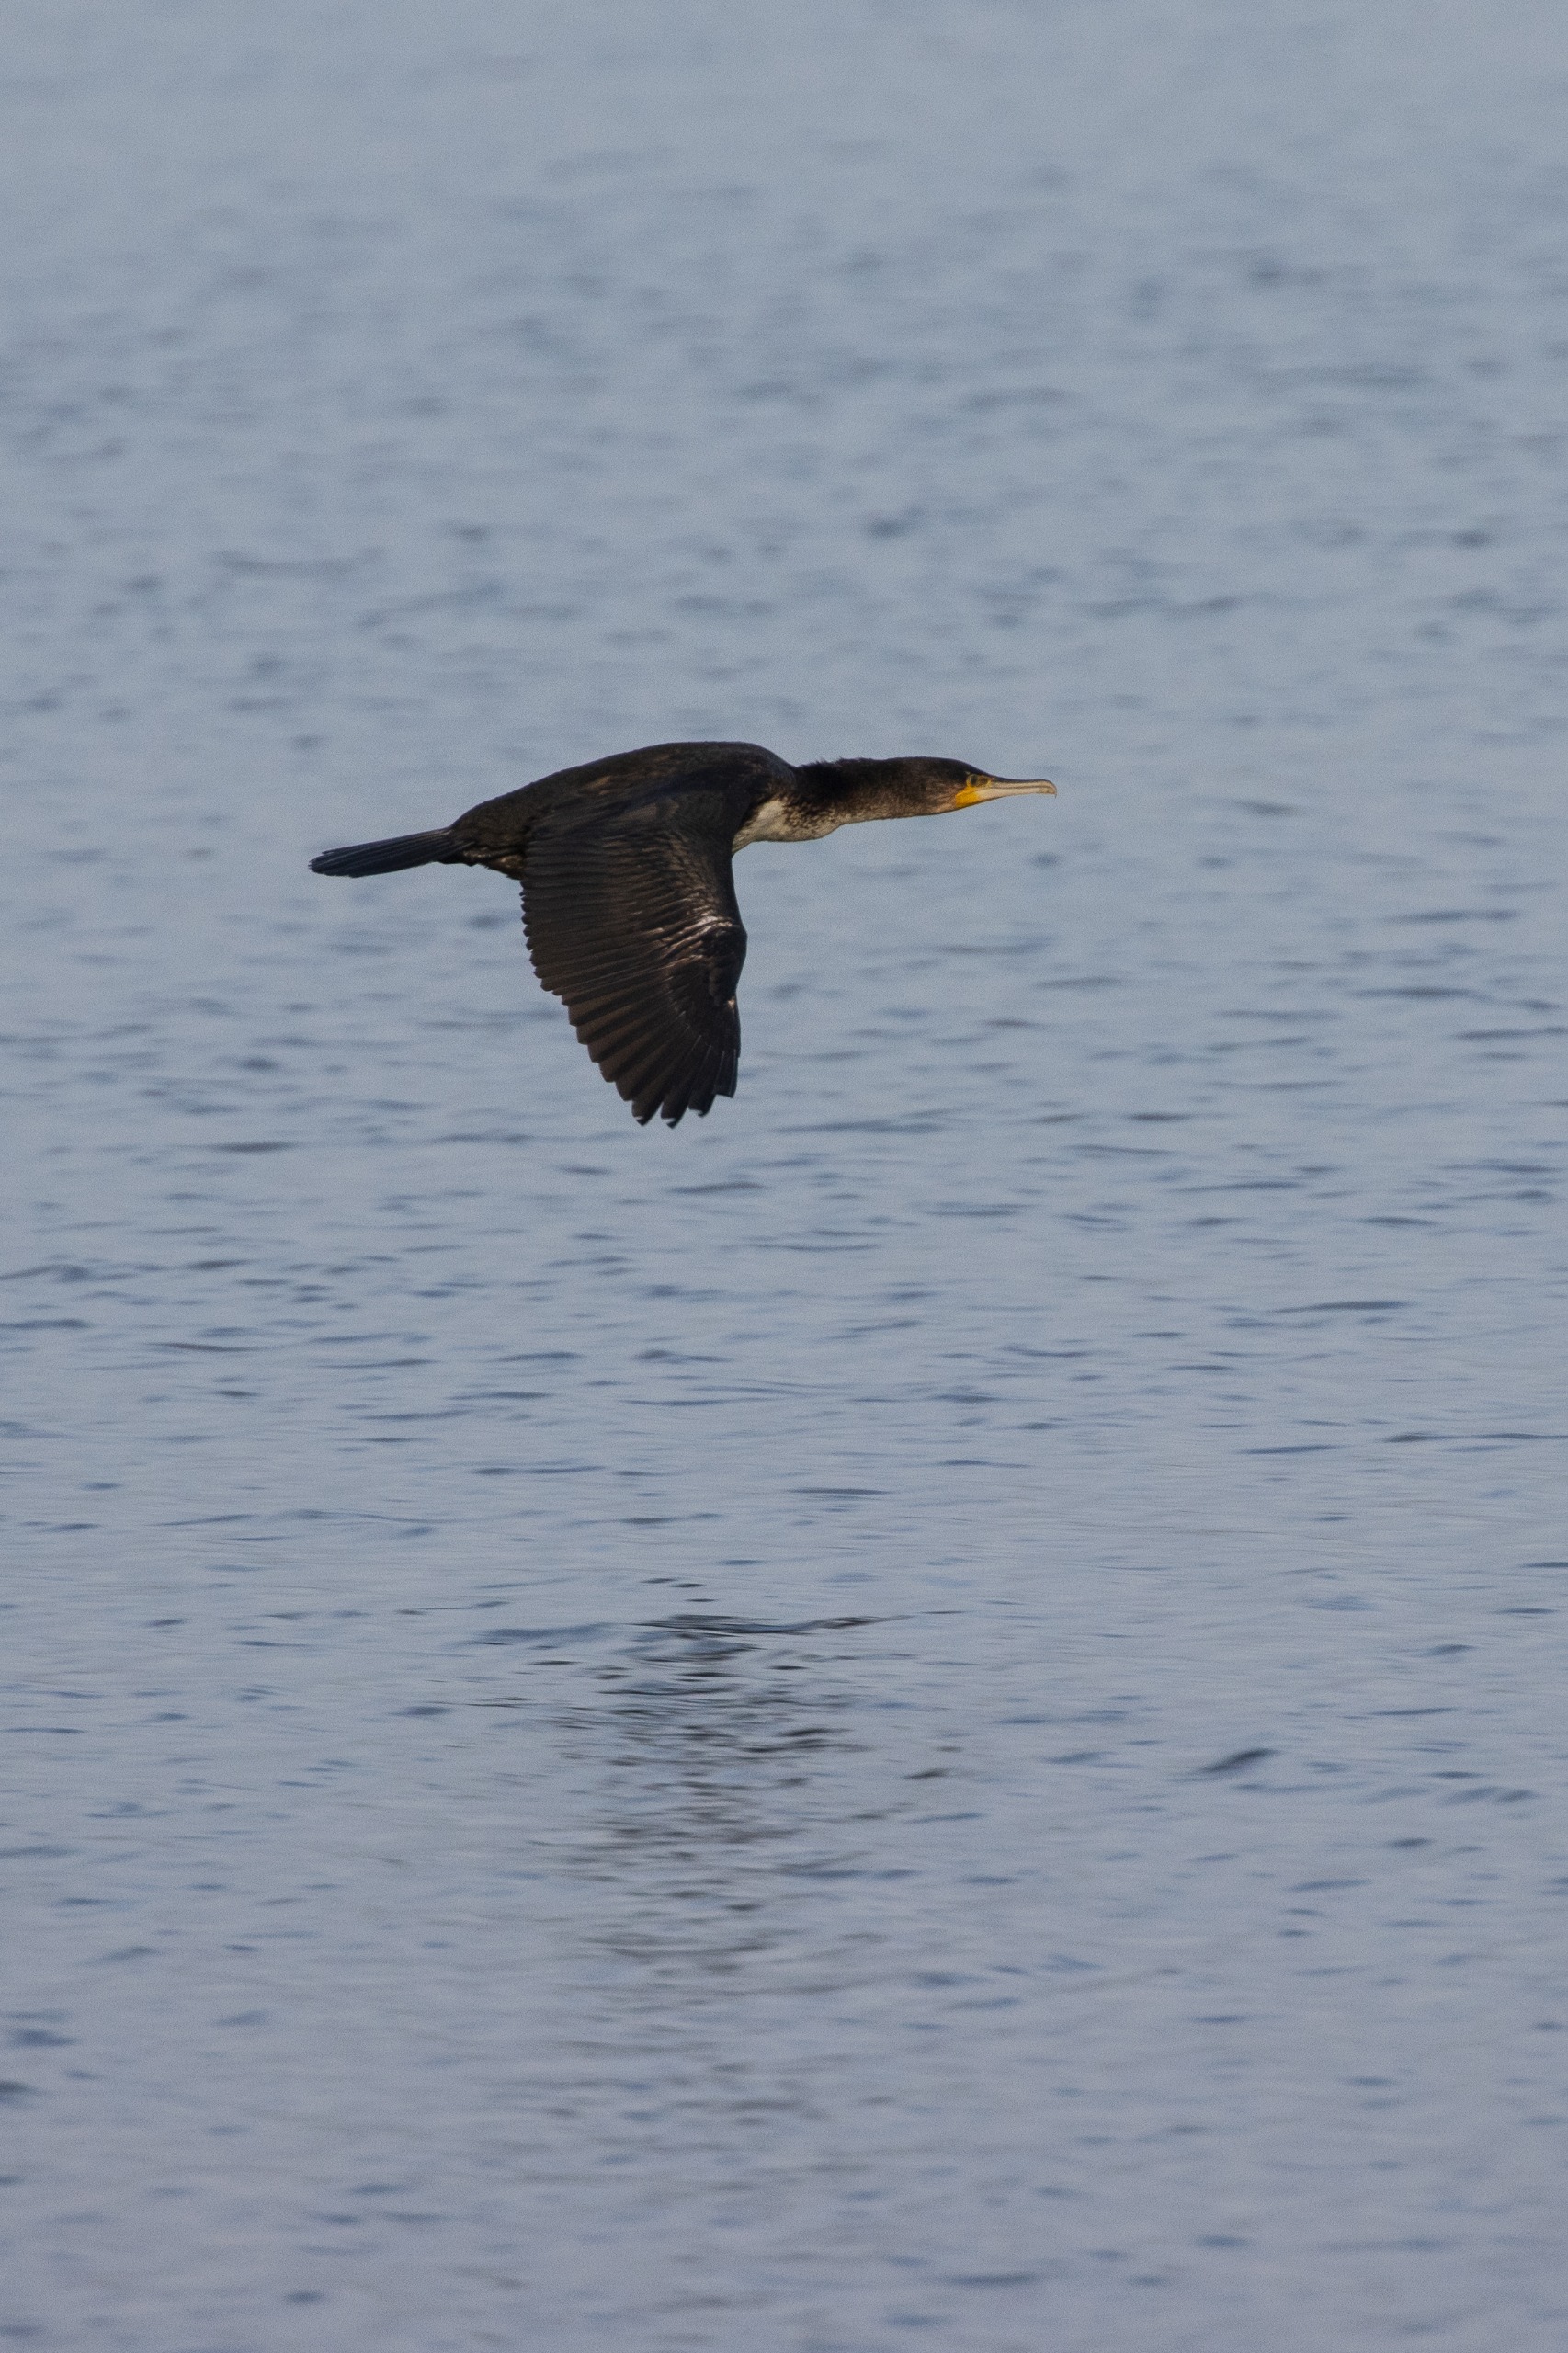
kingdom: Animalia
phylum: Chordata
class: Aves
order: Suliformes
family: Phalacrocoracidae
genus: Phalacrocorax
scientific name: Phalacrocorax carbo
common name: Skarv
